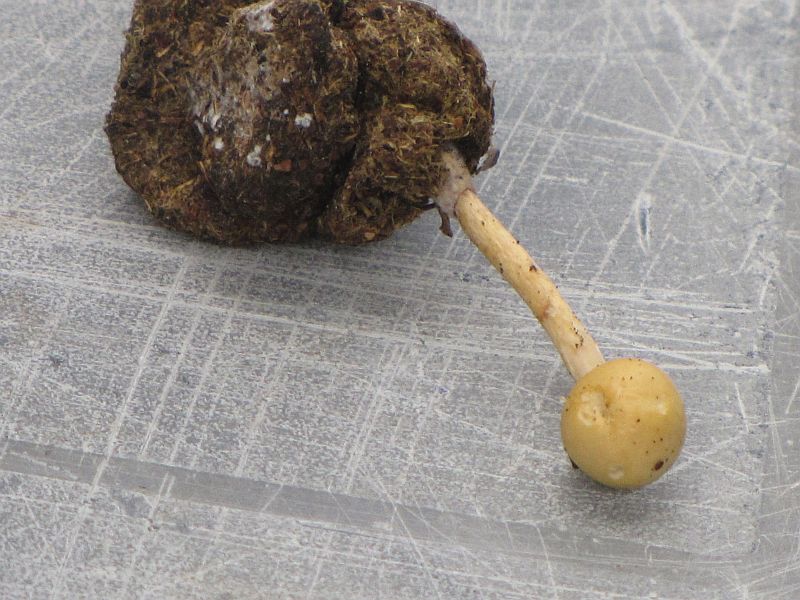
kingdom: Fungi
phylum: Basidiomycota
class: Agaricomycetes
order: Agaricales
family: Strophariaceae
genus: Protostropharia
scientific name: Protostropharia semiglobata
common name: halvkugleformet bredblad
